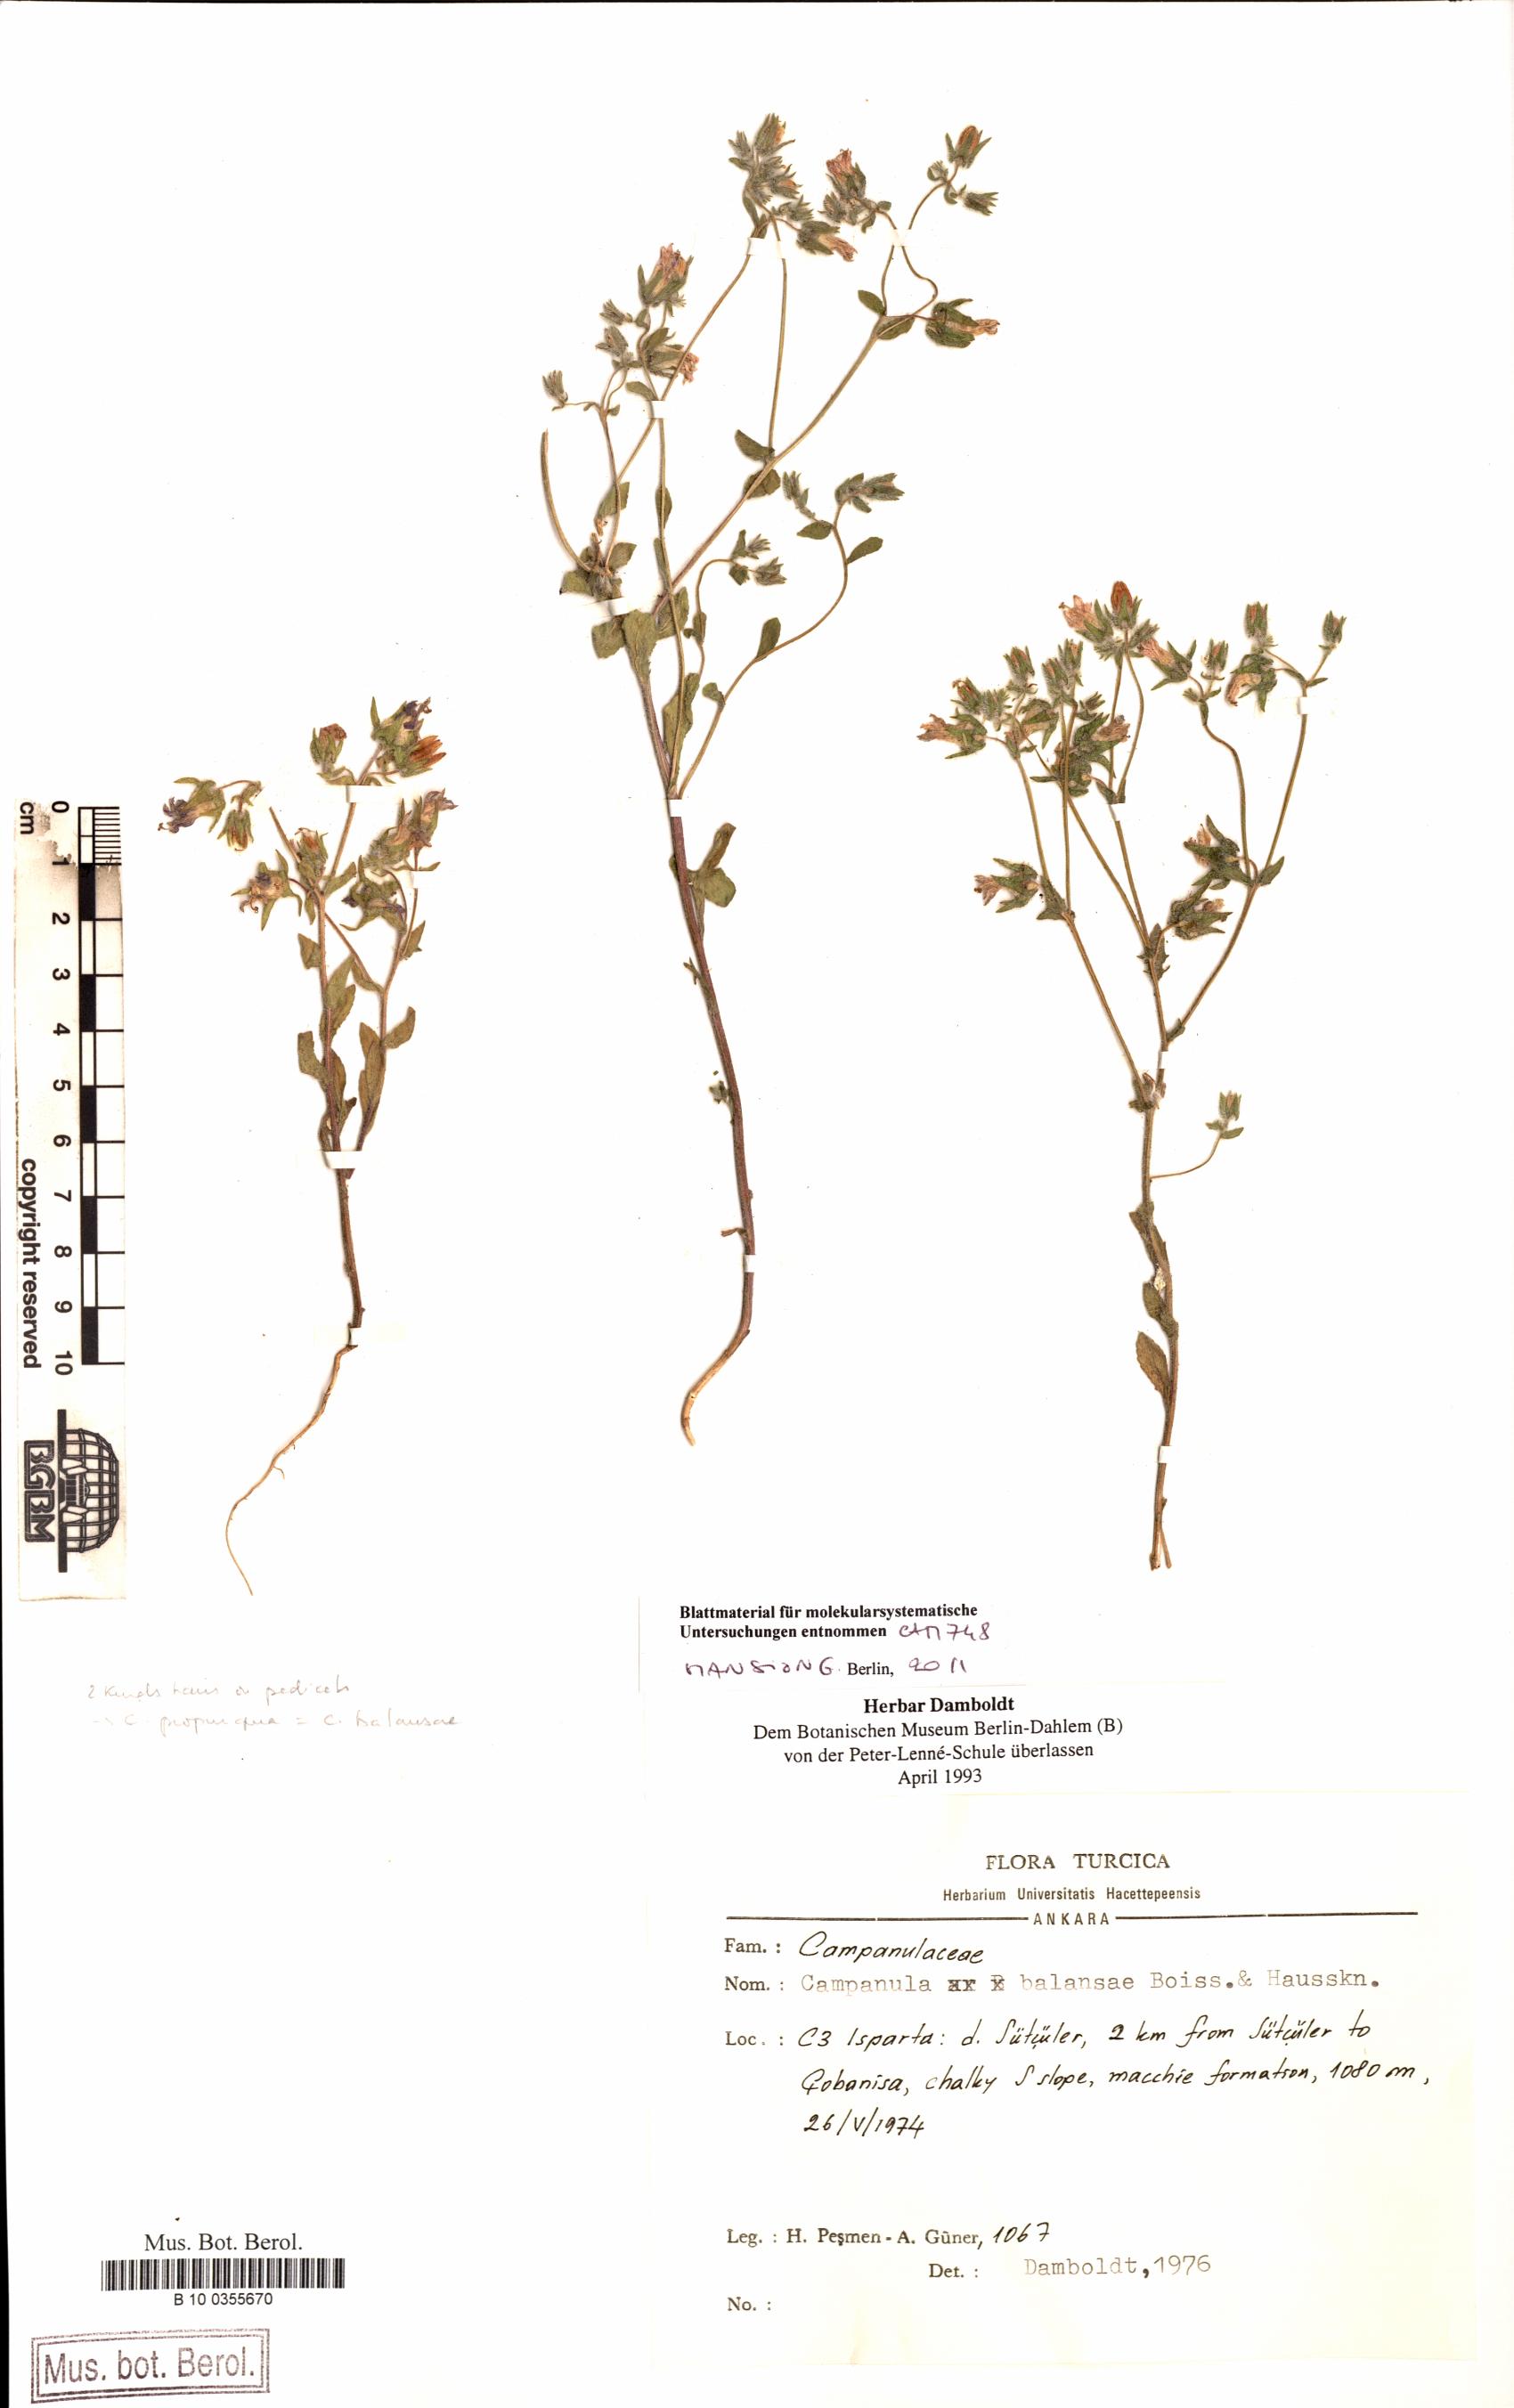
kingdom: Plantae
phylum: Tracheophyta
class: Magnoliopsida
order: Asterales
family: Campanulaceae
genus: Campanula
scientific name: Campanula propinqua
